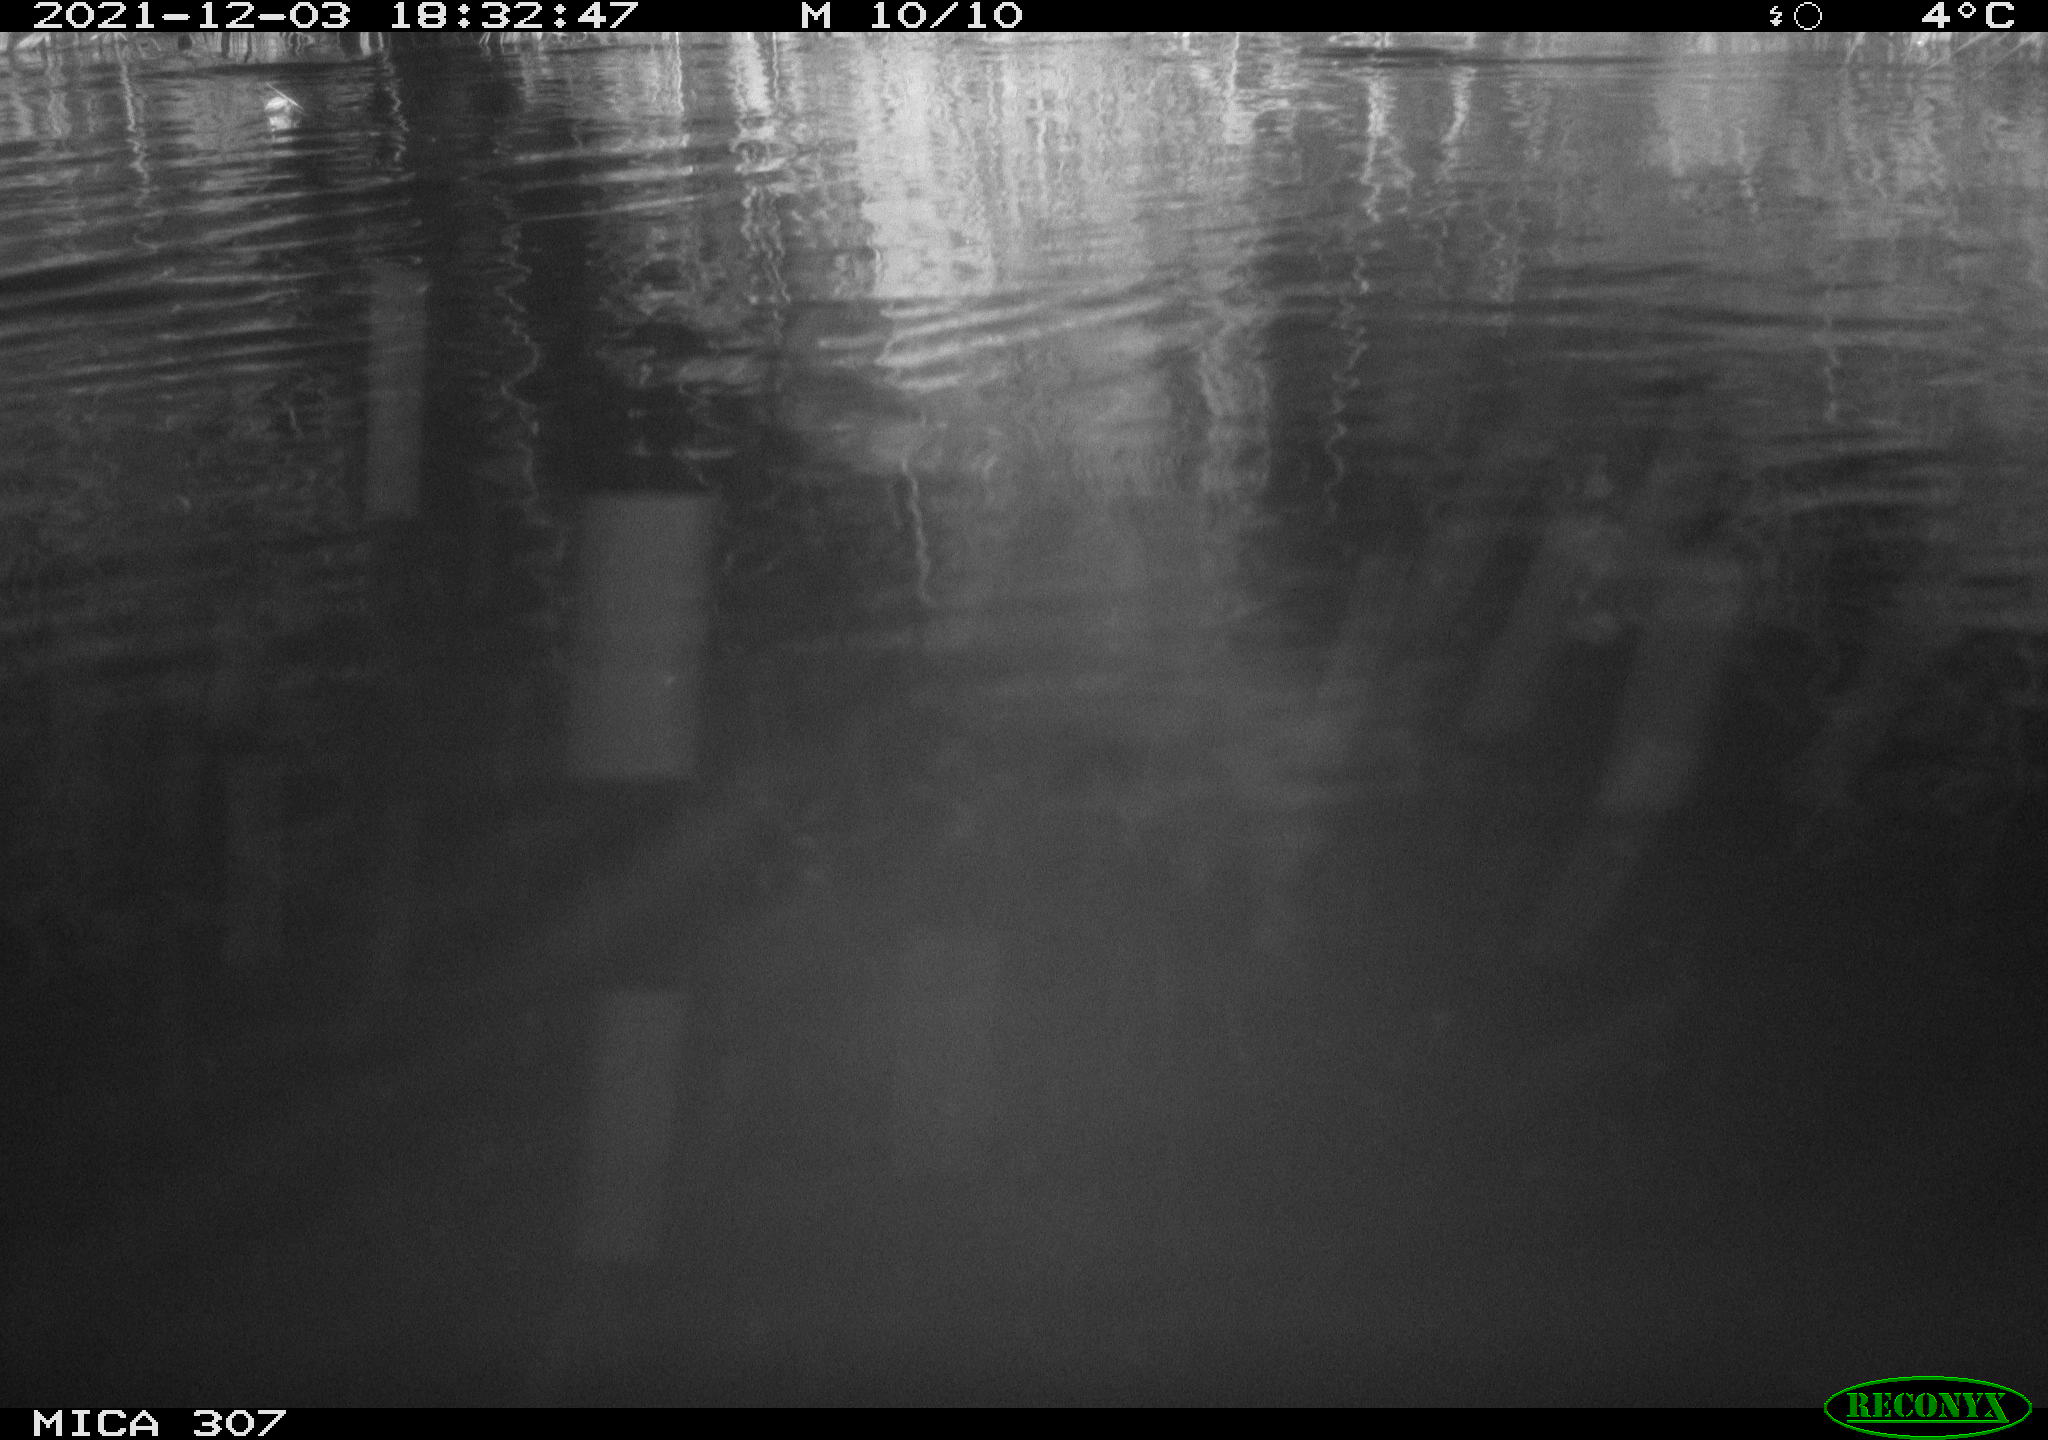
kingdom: Animalia
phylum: Chordata
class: Mammalia
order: Rodentia
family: Muridae
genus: Rattus
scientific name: Rattus norvegicus
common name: Brown rat
